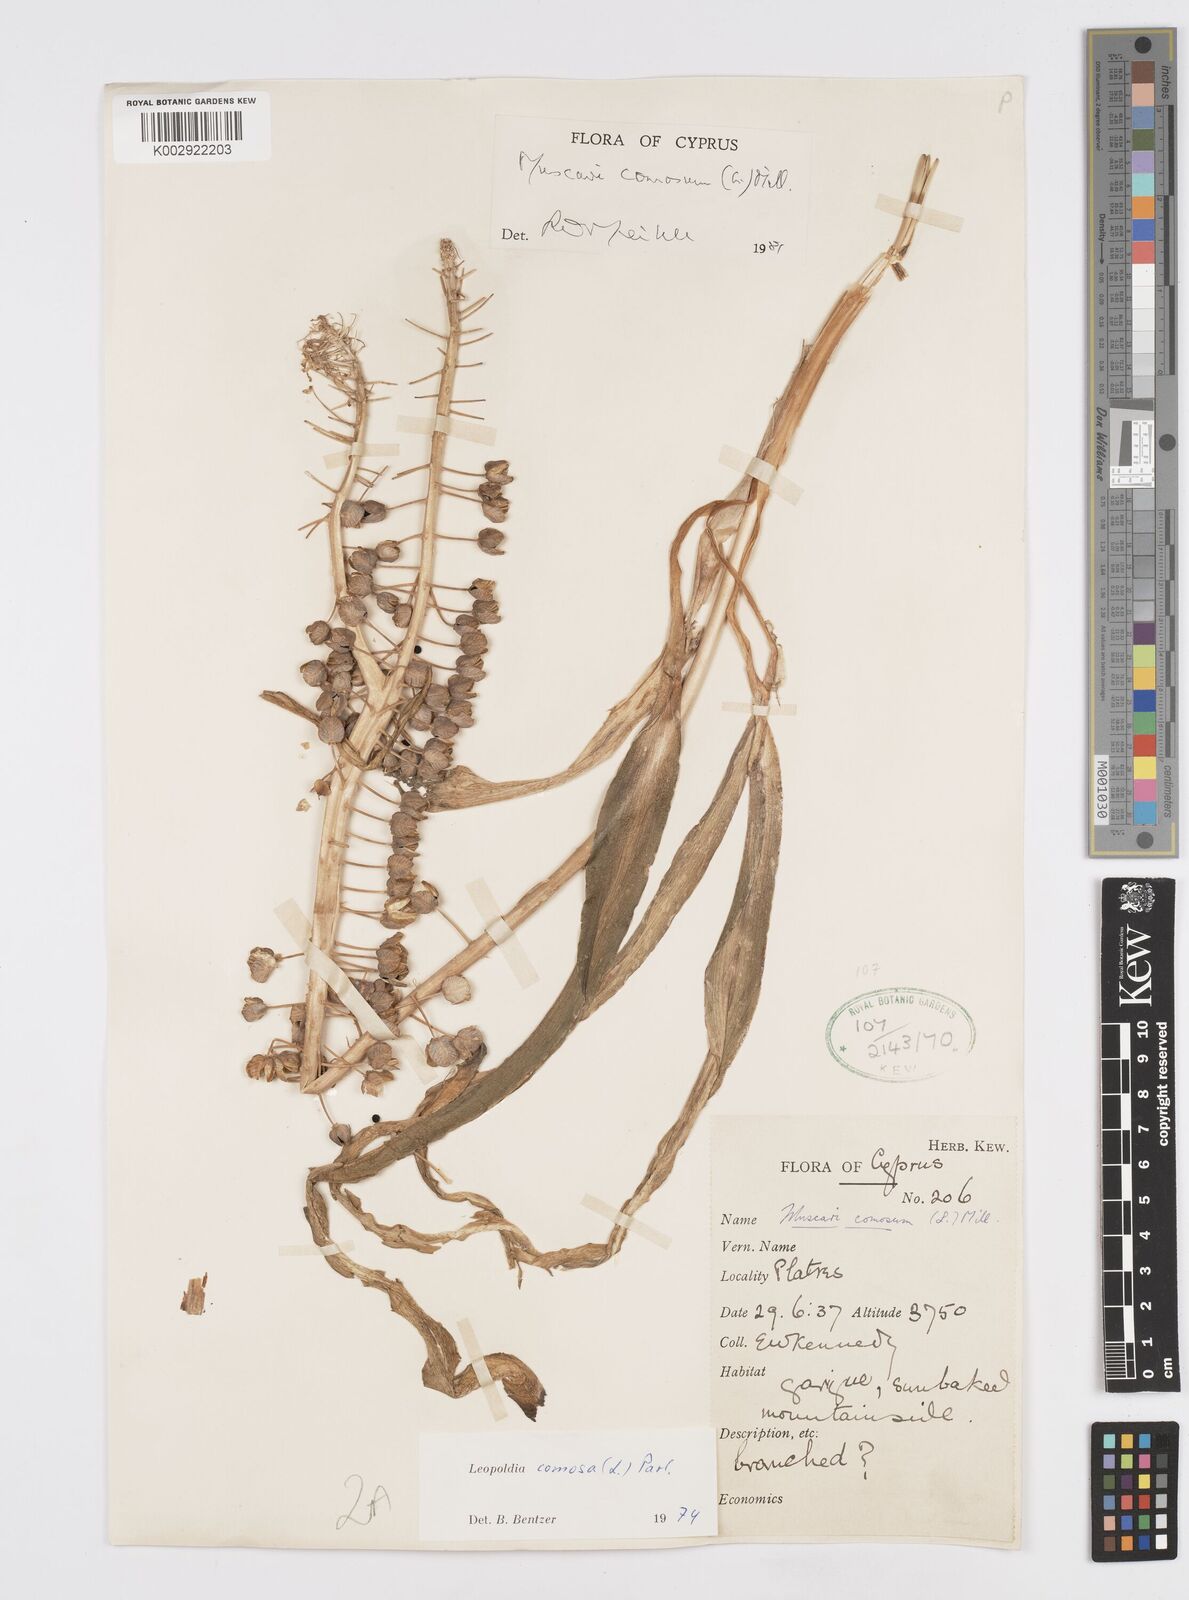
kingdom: Plantae
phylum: Tracheophyta
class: Liliopsida
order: Asparagales
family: Asparagaceae
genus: Muscari
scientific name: Muscari comosum
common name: Tassel hyacinth
